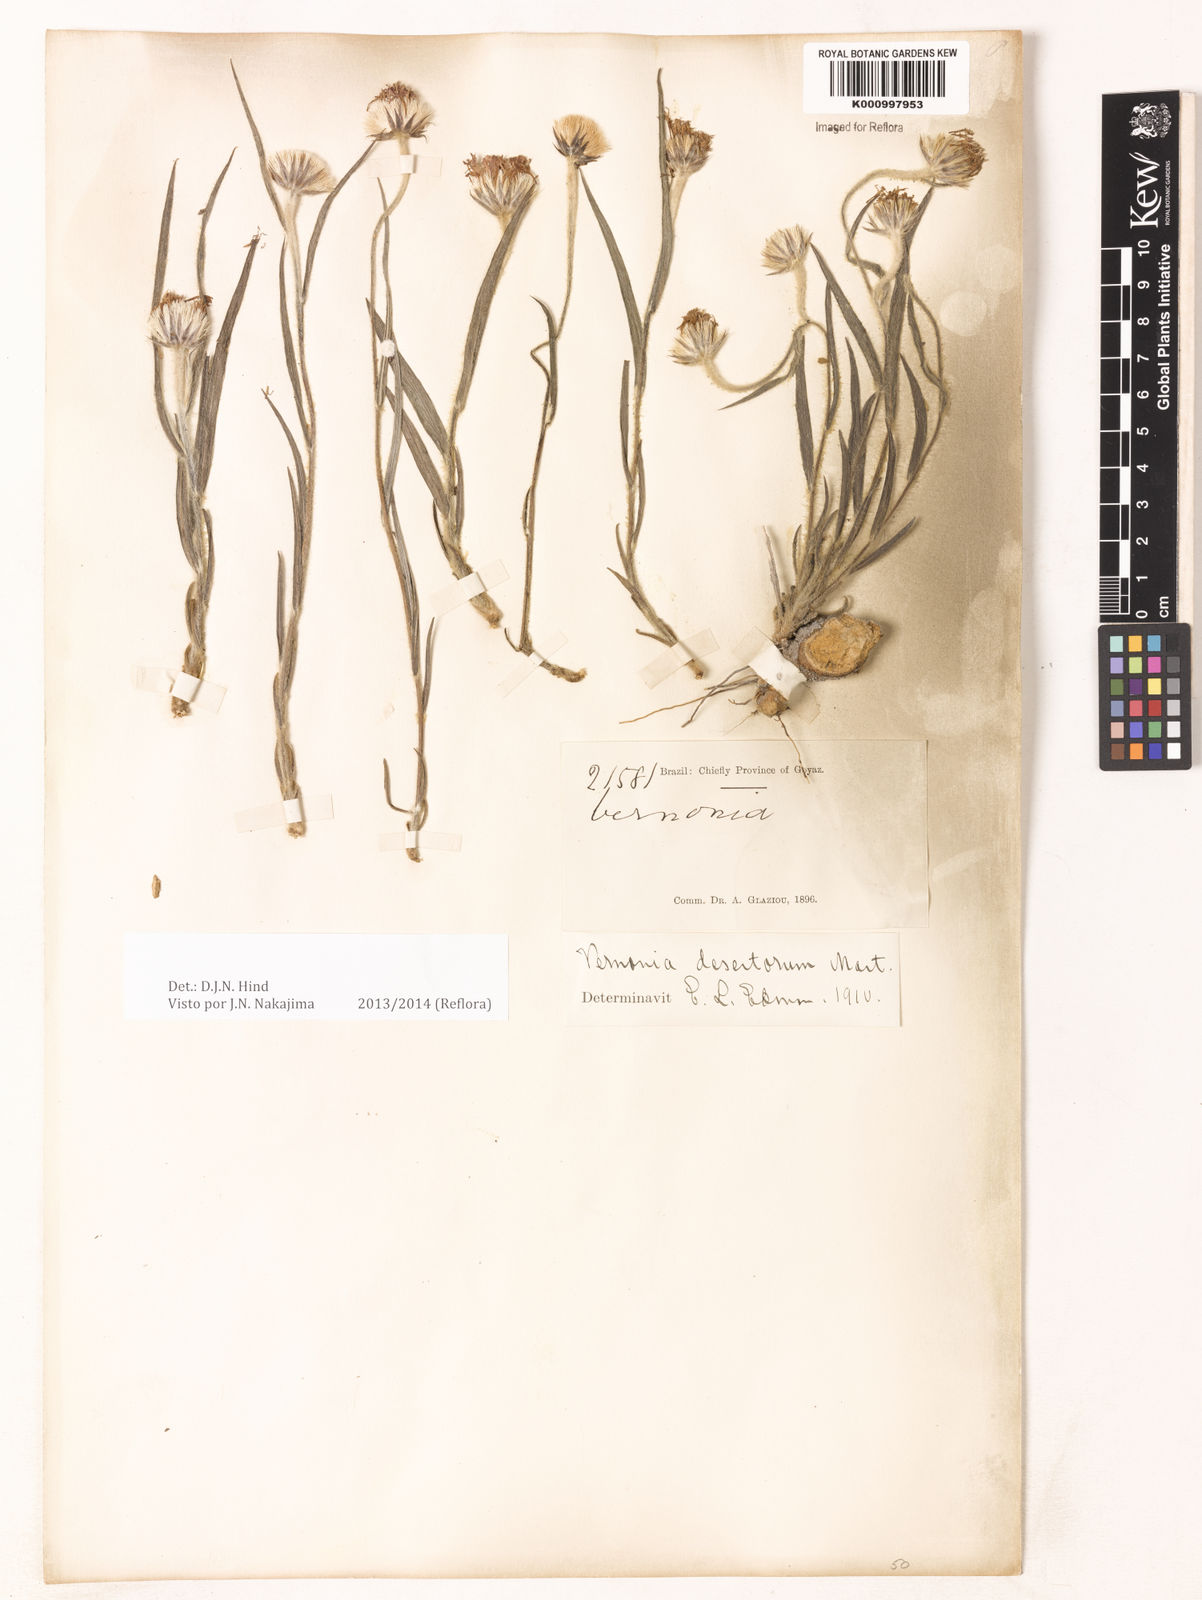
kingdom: Plantae
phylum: Tracheophyta
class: Magnoliopsida
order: Asterales
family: Asteraceae
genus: Chrysolaena
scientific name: Chrysolaena desertorum
